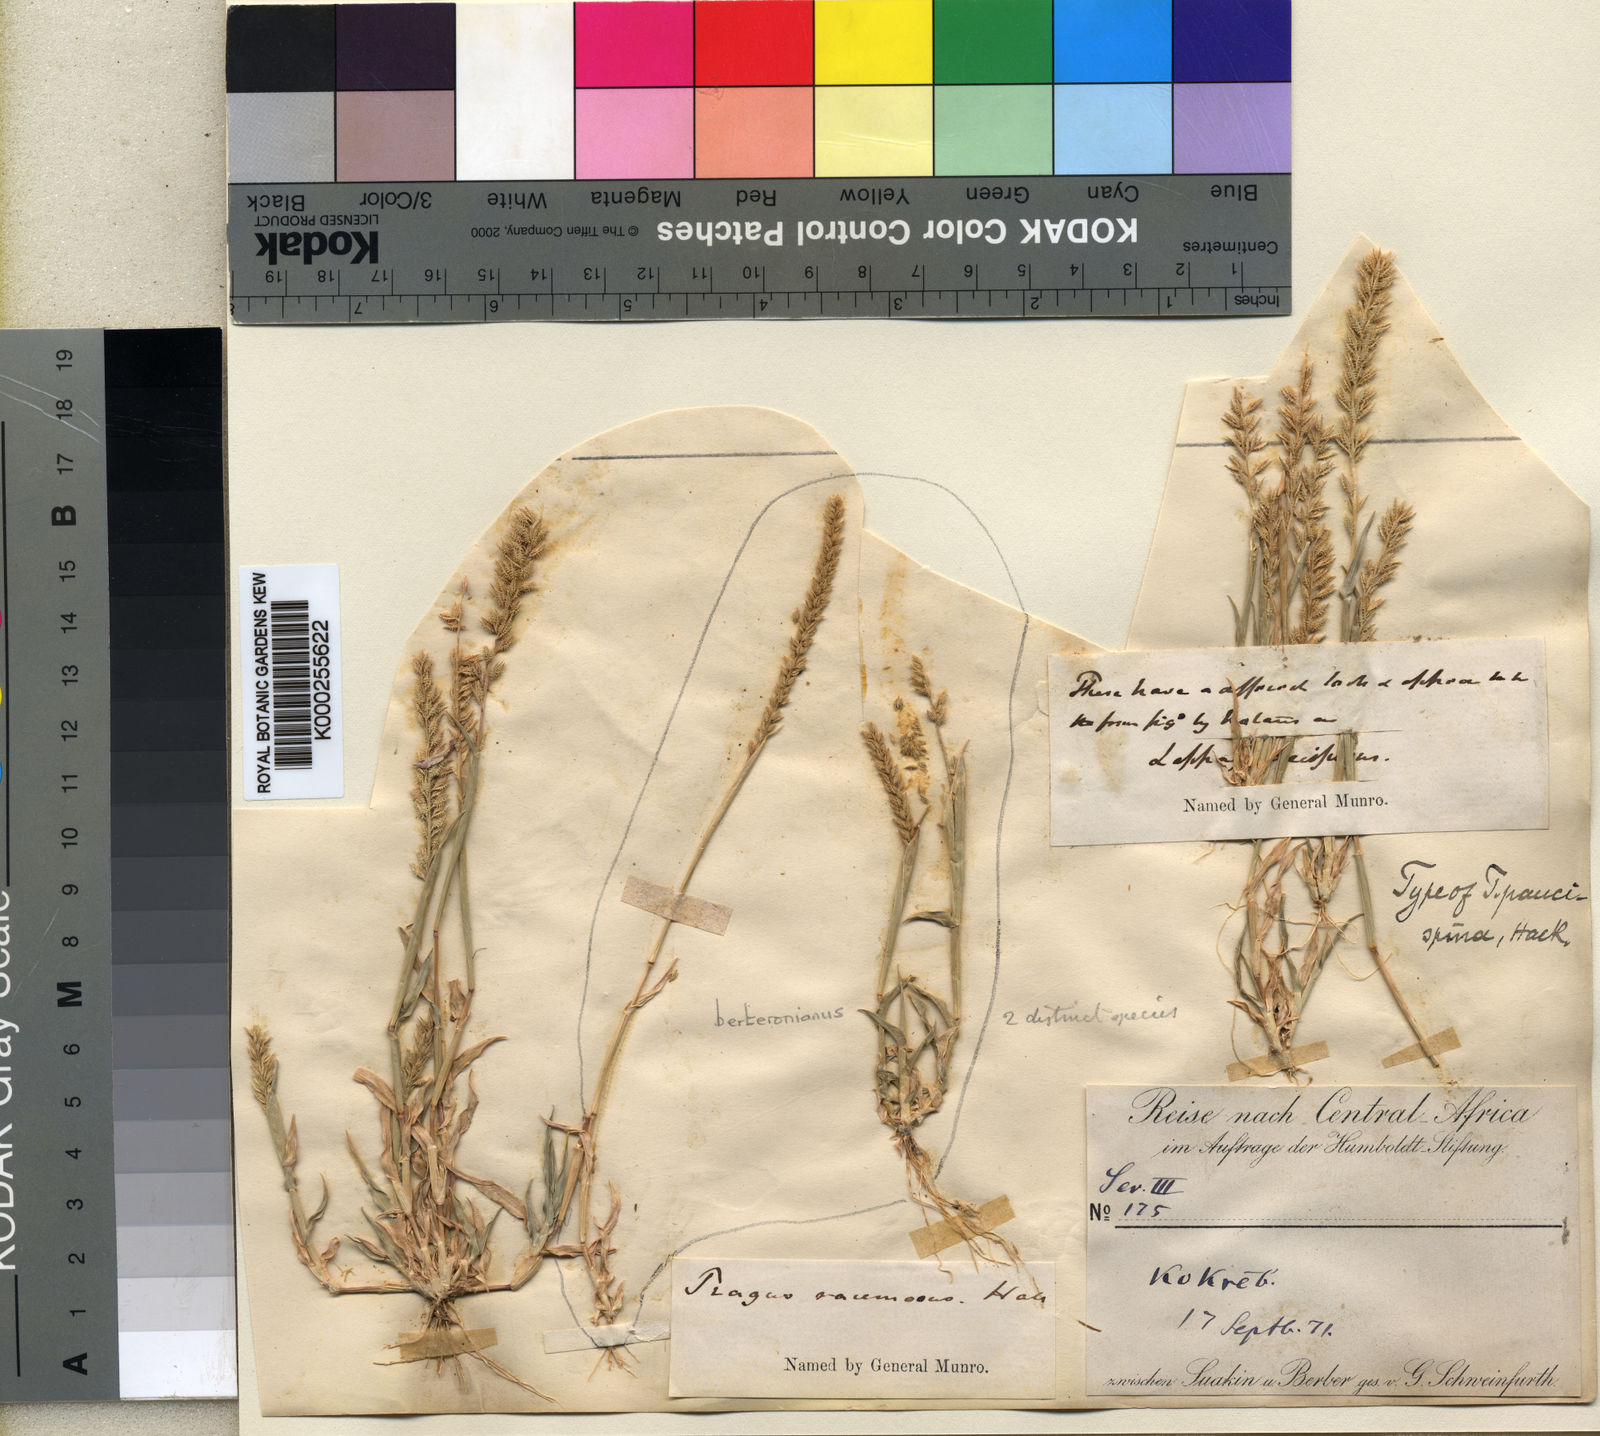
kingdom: Plantae
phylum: Tracheophyta
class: Liliopsida
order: Poales
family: Poaceae
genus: Tragus
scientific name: Tragus racemosus
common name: European bur-grass
